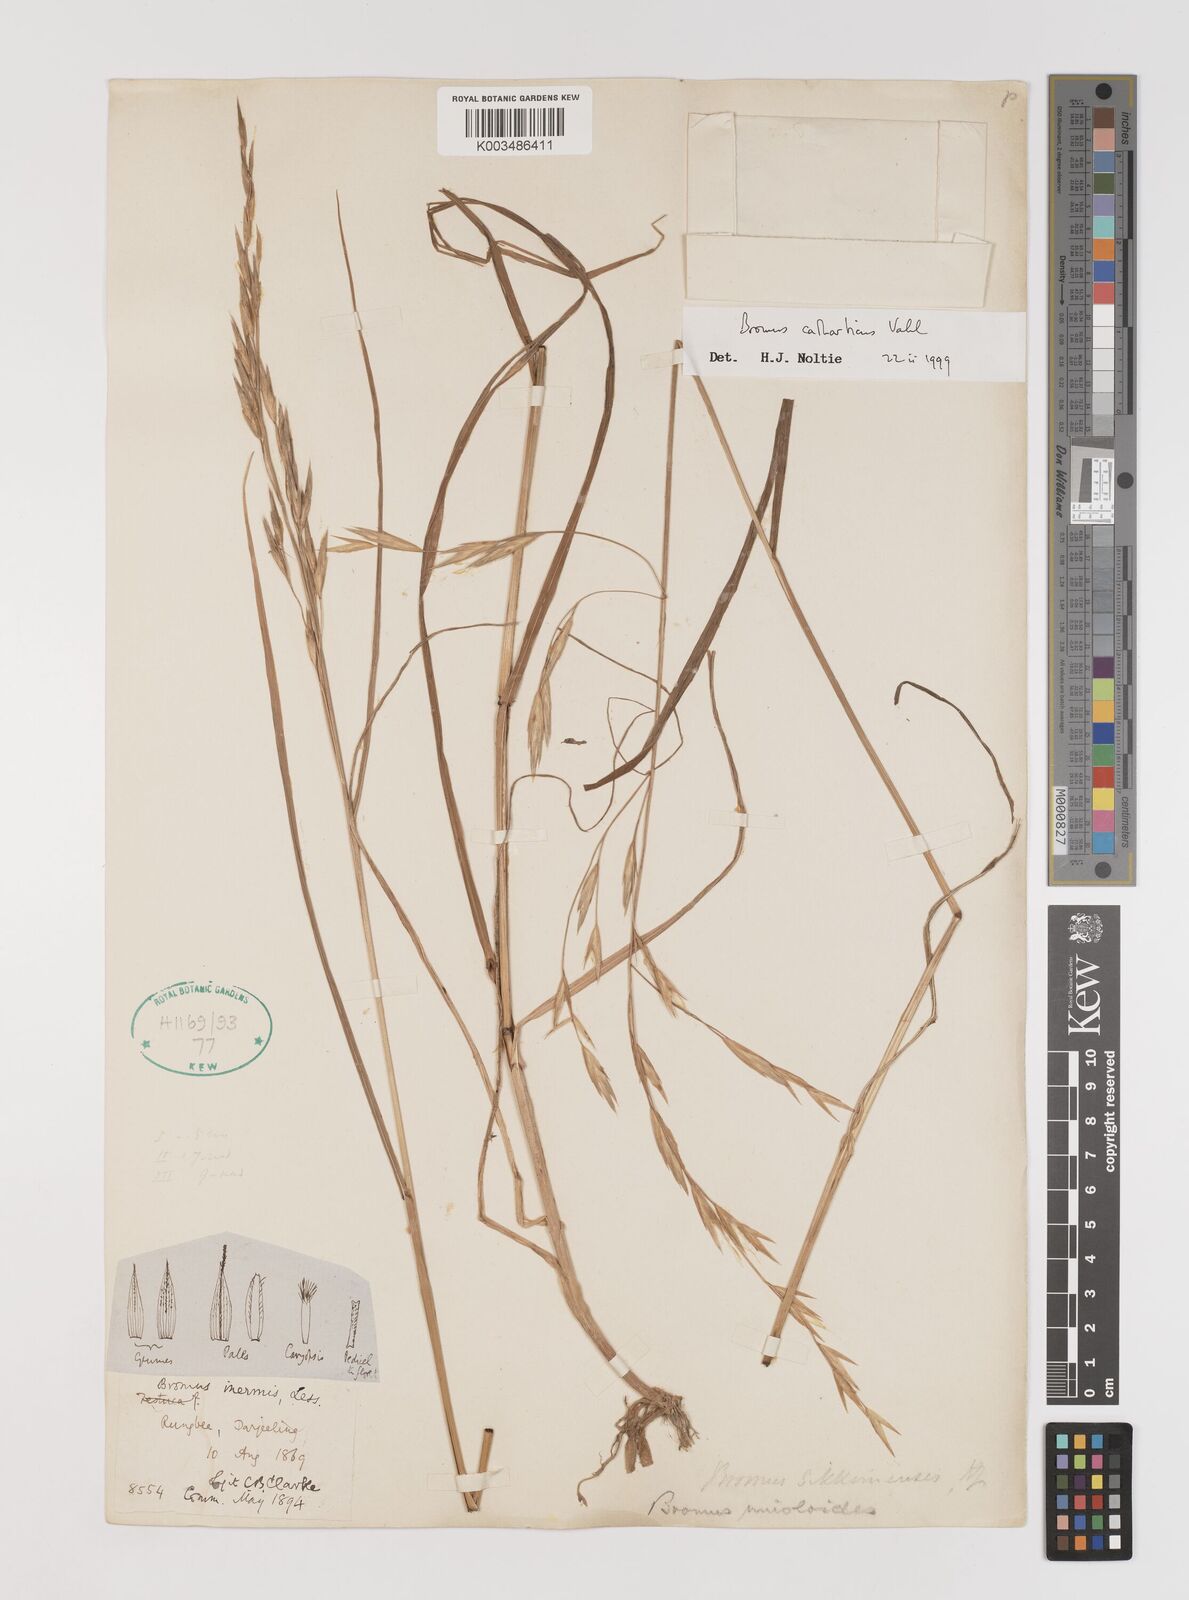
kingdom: Plantae
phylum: Tracheophyta
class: Liliopsida
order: Poales
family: Poaceae
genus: Bromus
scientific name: Bromus catharticus
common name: Rescuegrass
